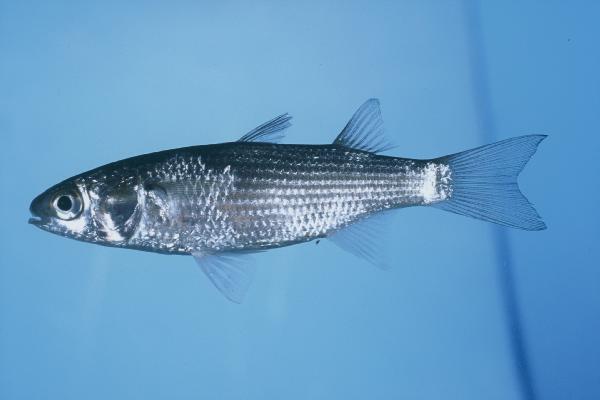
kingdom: Animalia
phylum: Chordata
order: Mugiliformes
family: Mugilidae
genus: Osteomugil
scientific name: Osteomugil robustus
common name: Robust mullet
